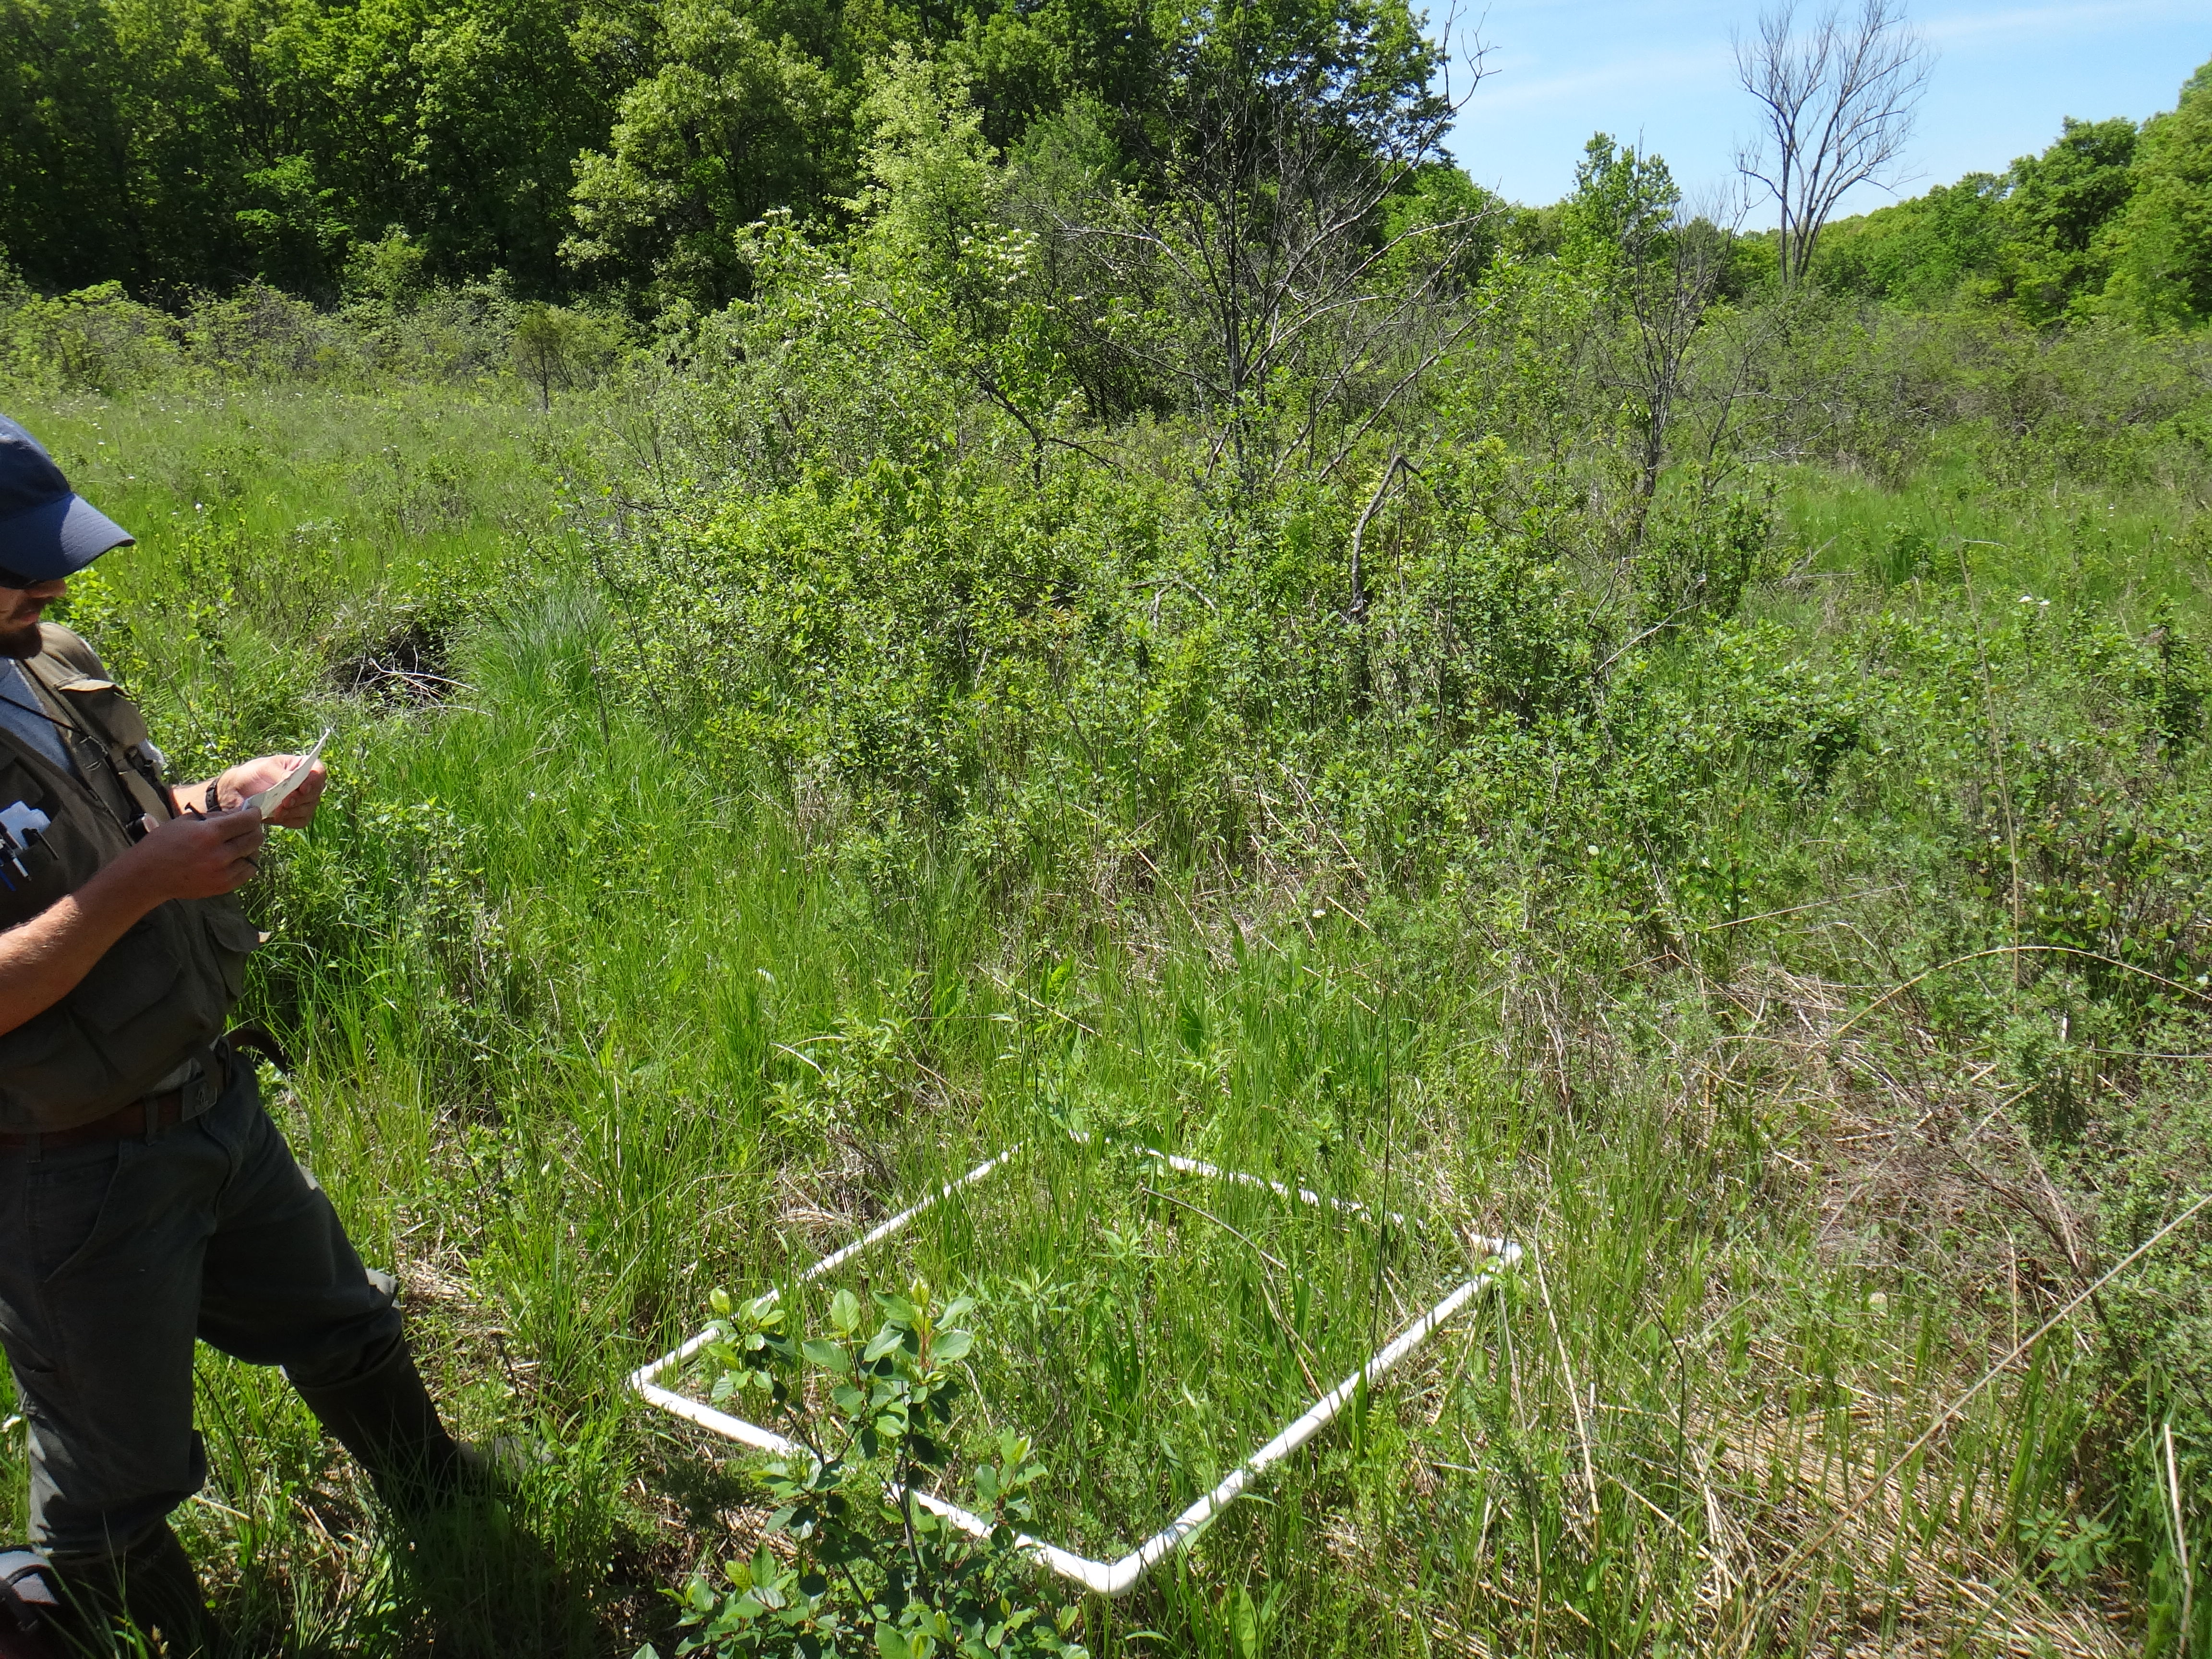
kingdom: Plantae
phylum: Tracheophyta
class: Magnoliopsida
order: Lamiales
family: Lamiaceae
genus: Lycopus
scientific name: Lycopus americanus
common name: American bugleweed
